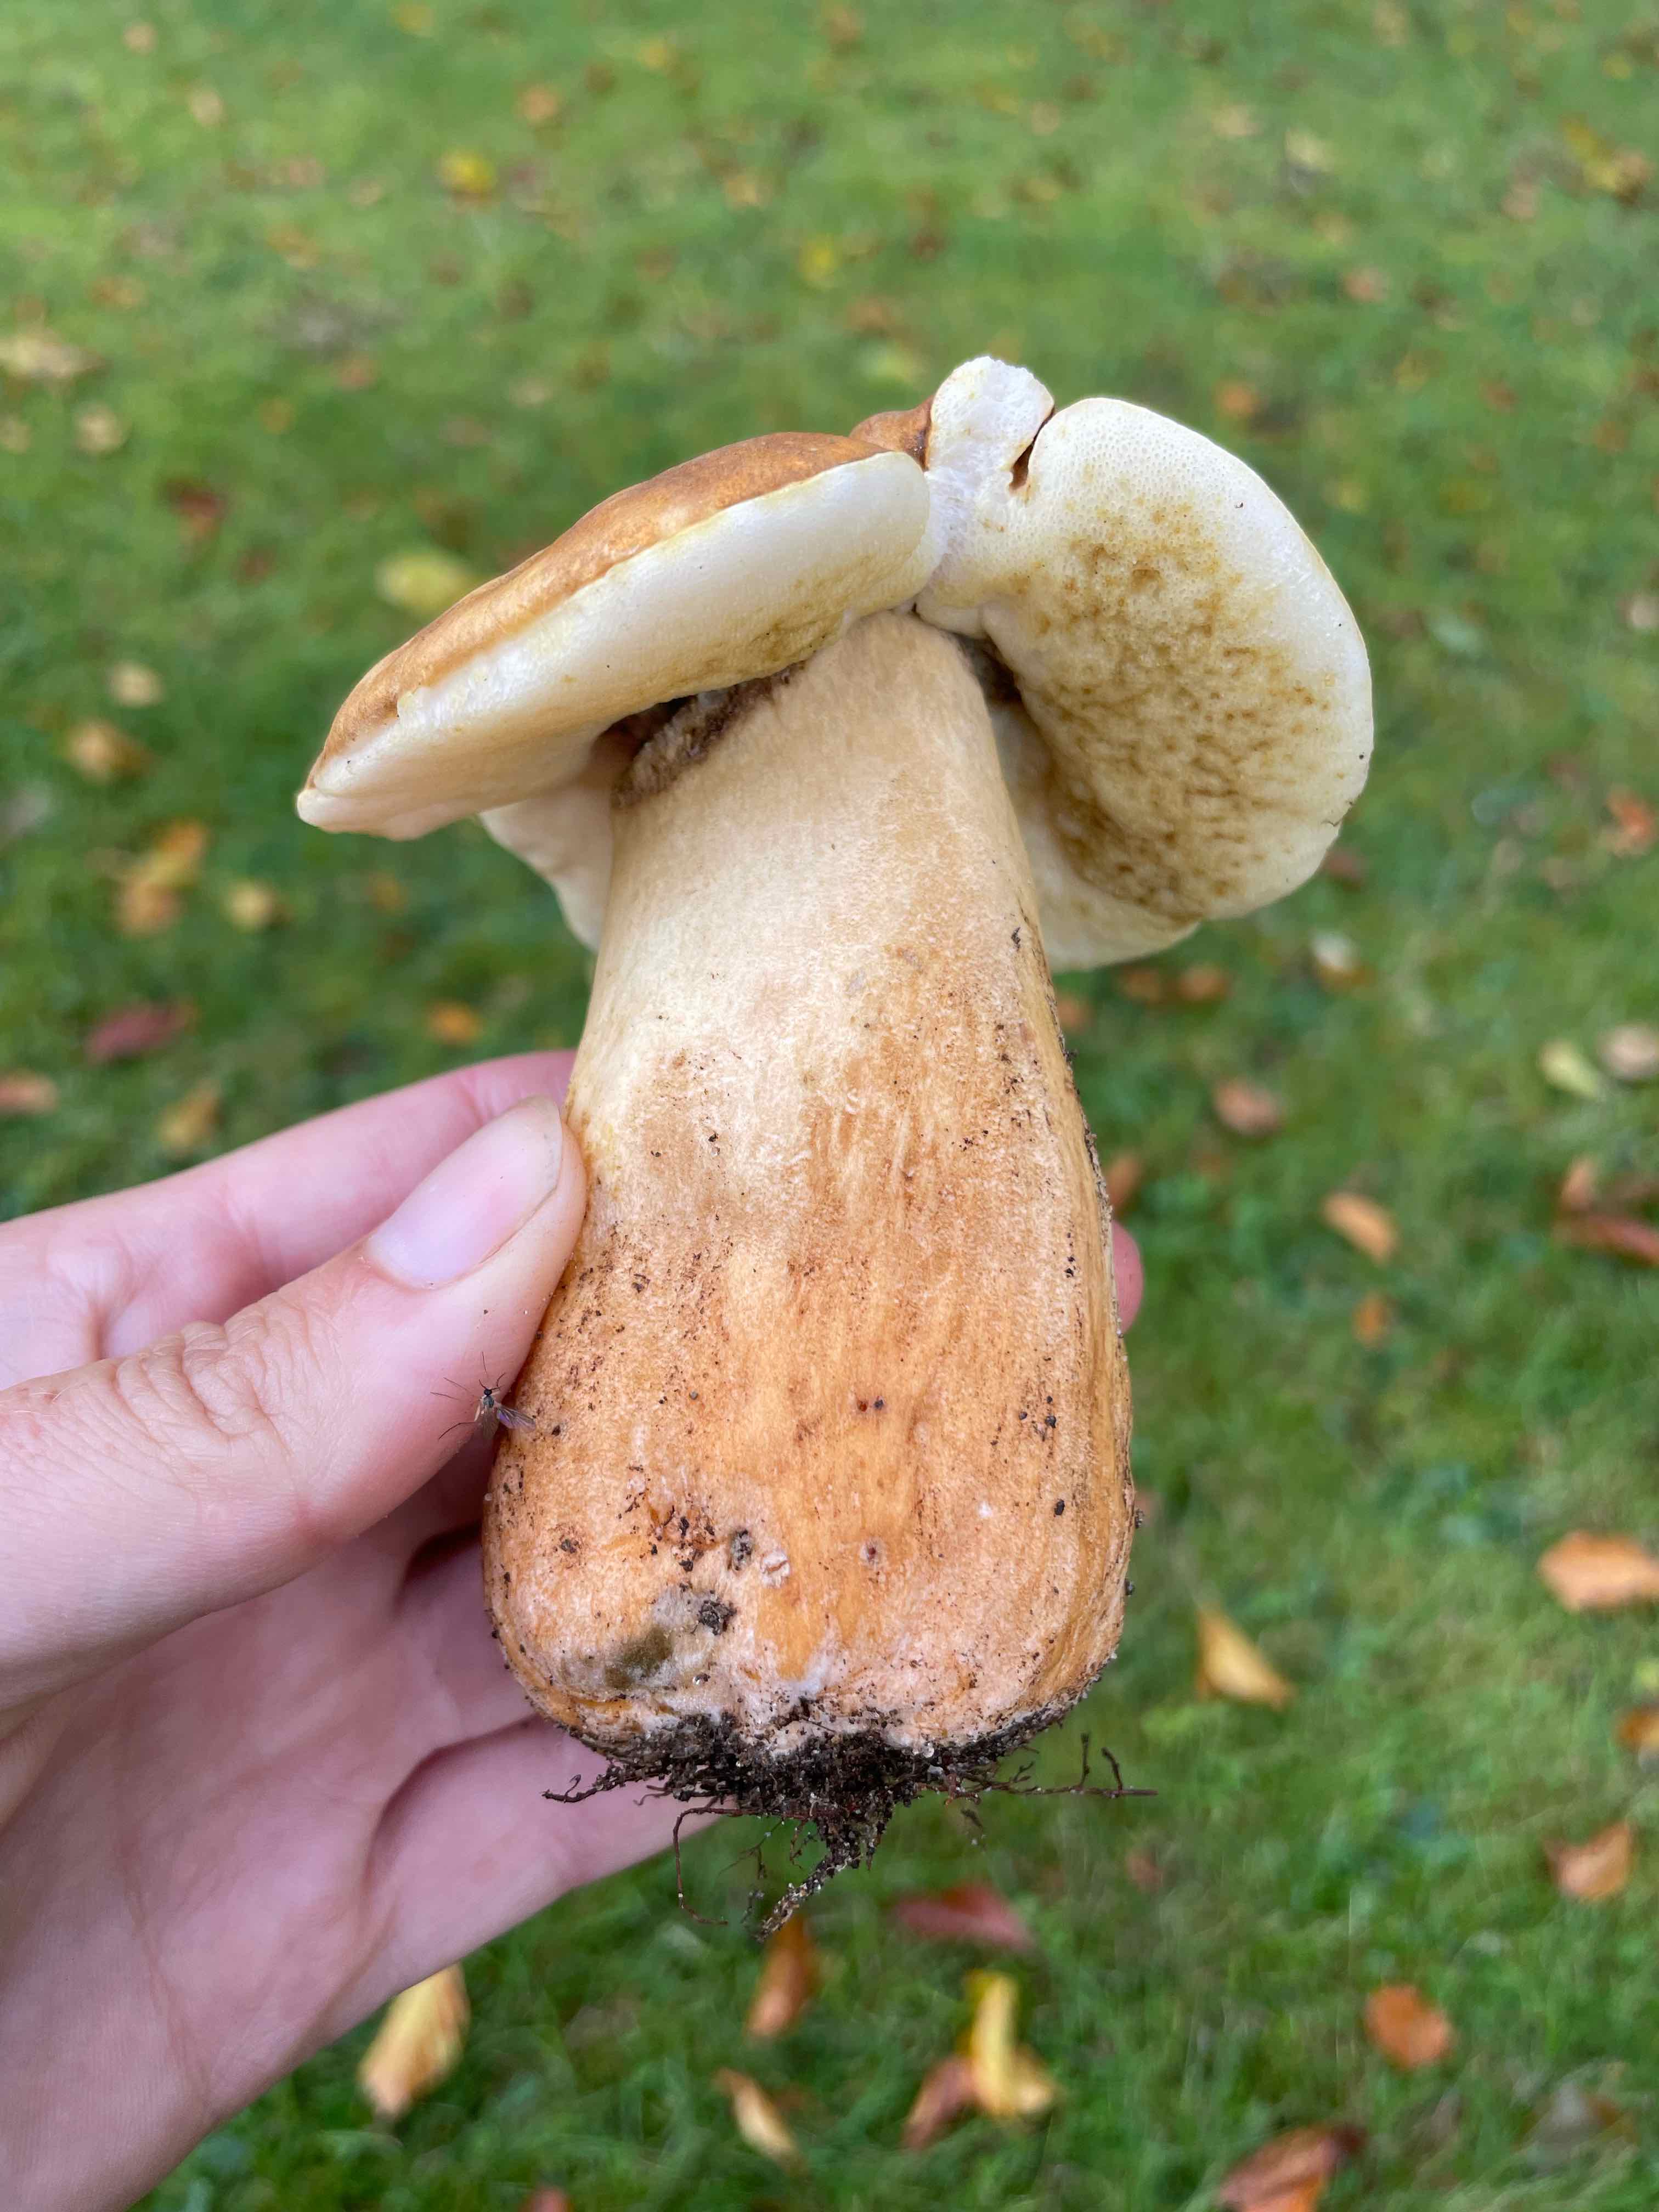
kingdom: Fungi
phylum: Basidiomycota
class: Agaricomycetes
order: Boletales
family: Gyroporaceae
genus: Gyroporus
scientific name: Gyroporus castaneus
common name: kastanie-kammerrørhat
